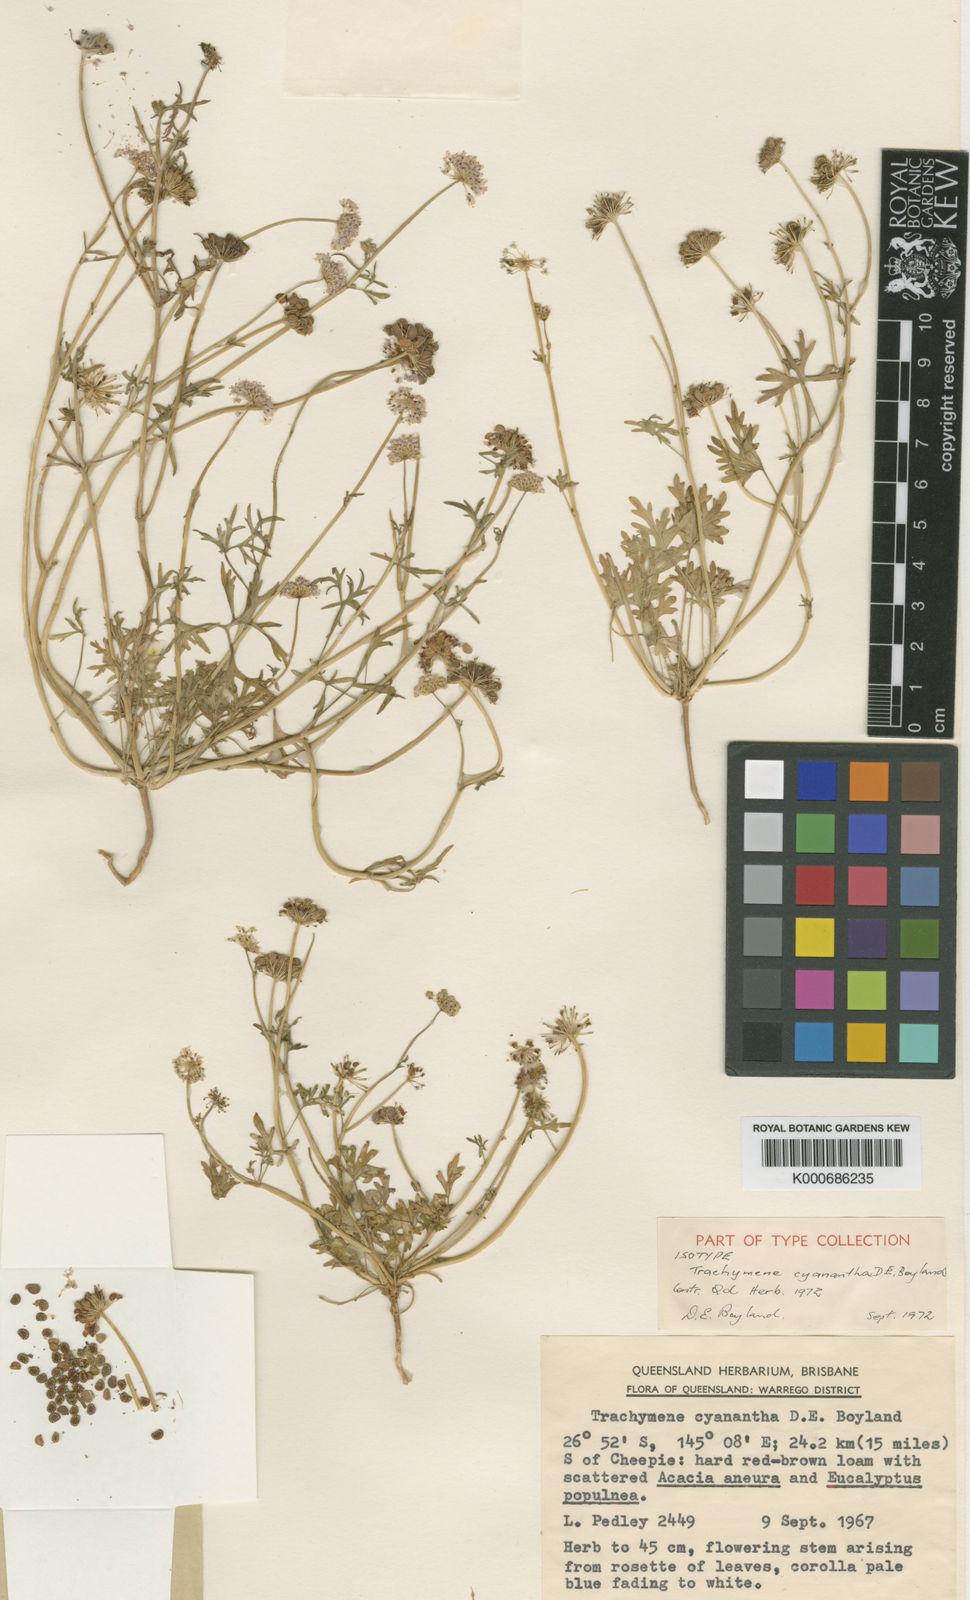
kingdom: Plantae
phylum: Tracheophyta
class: Magnoliopsida
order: Apiales
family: Araliaceae
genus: Trachymene
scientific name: Trachymene cyanantha
